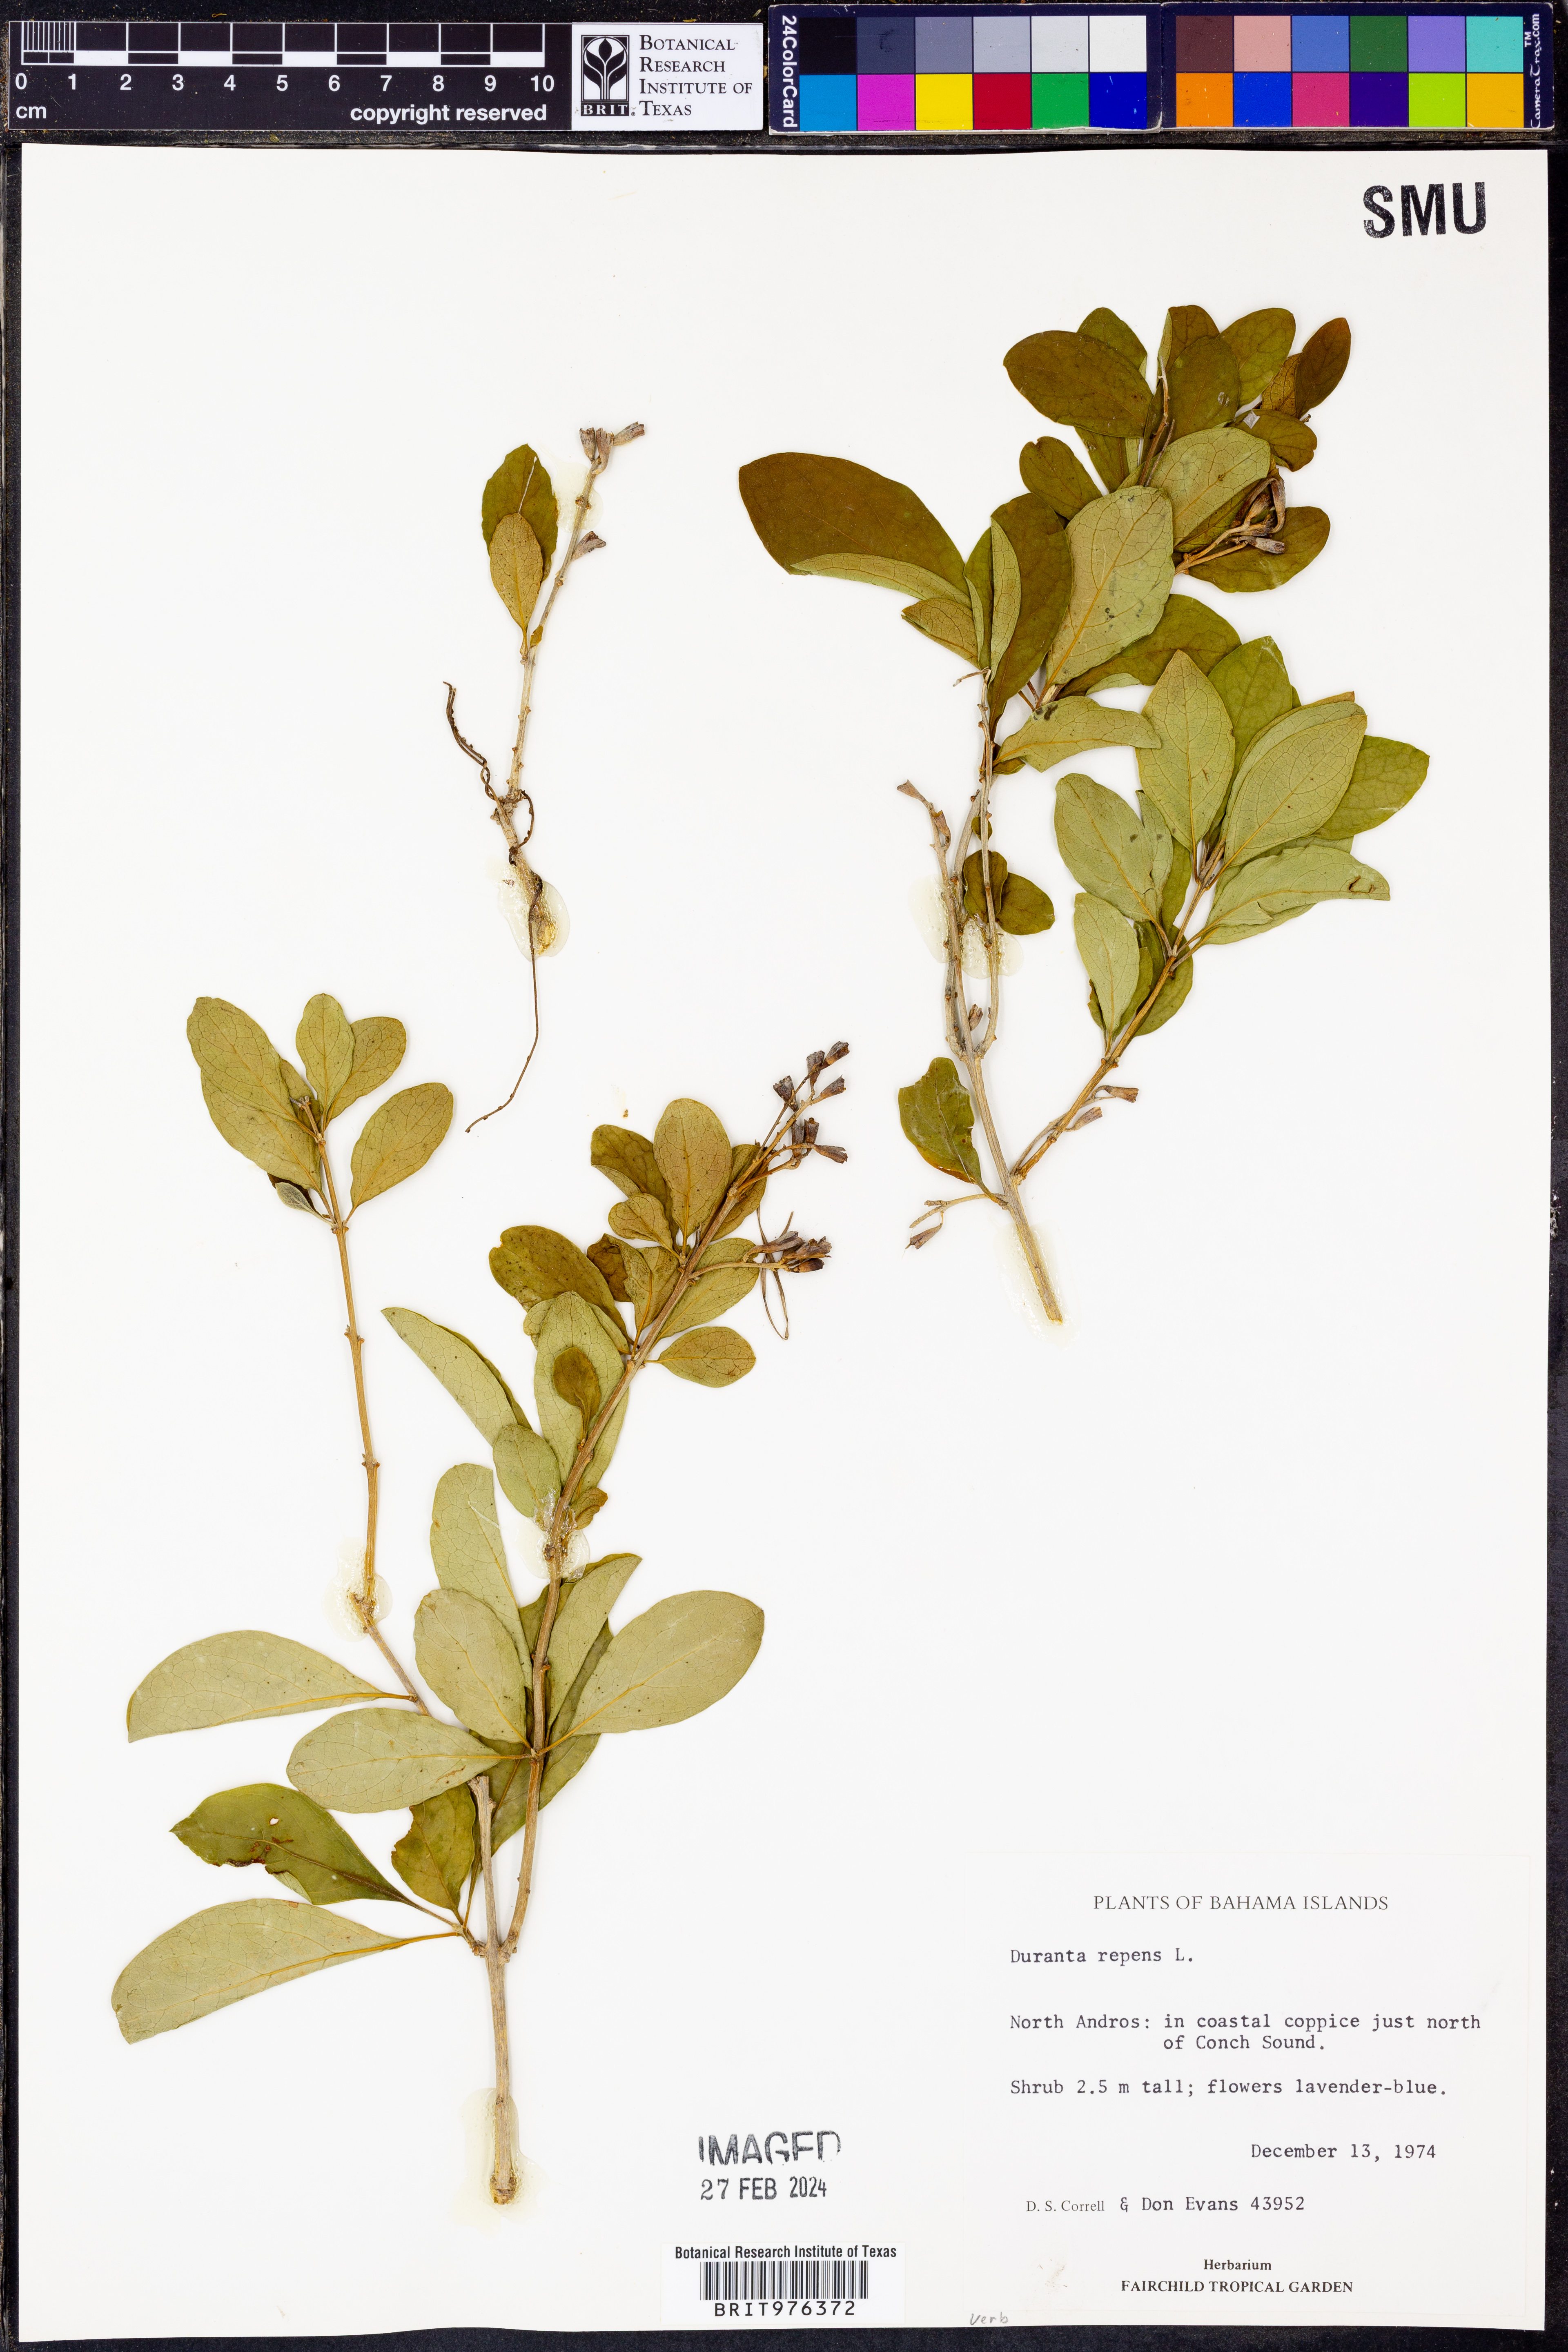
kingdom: Plantae
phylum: Tracheophyta
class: Magnoliopsida
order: Lamiales
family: Verbenaceae
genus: Duranta
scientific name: Duranta
